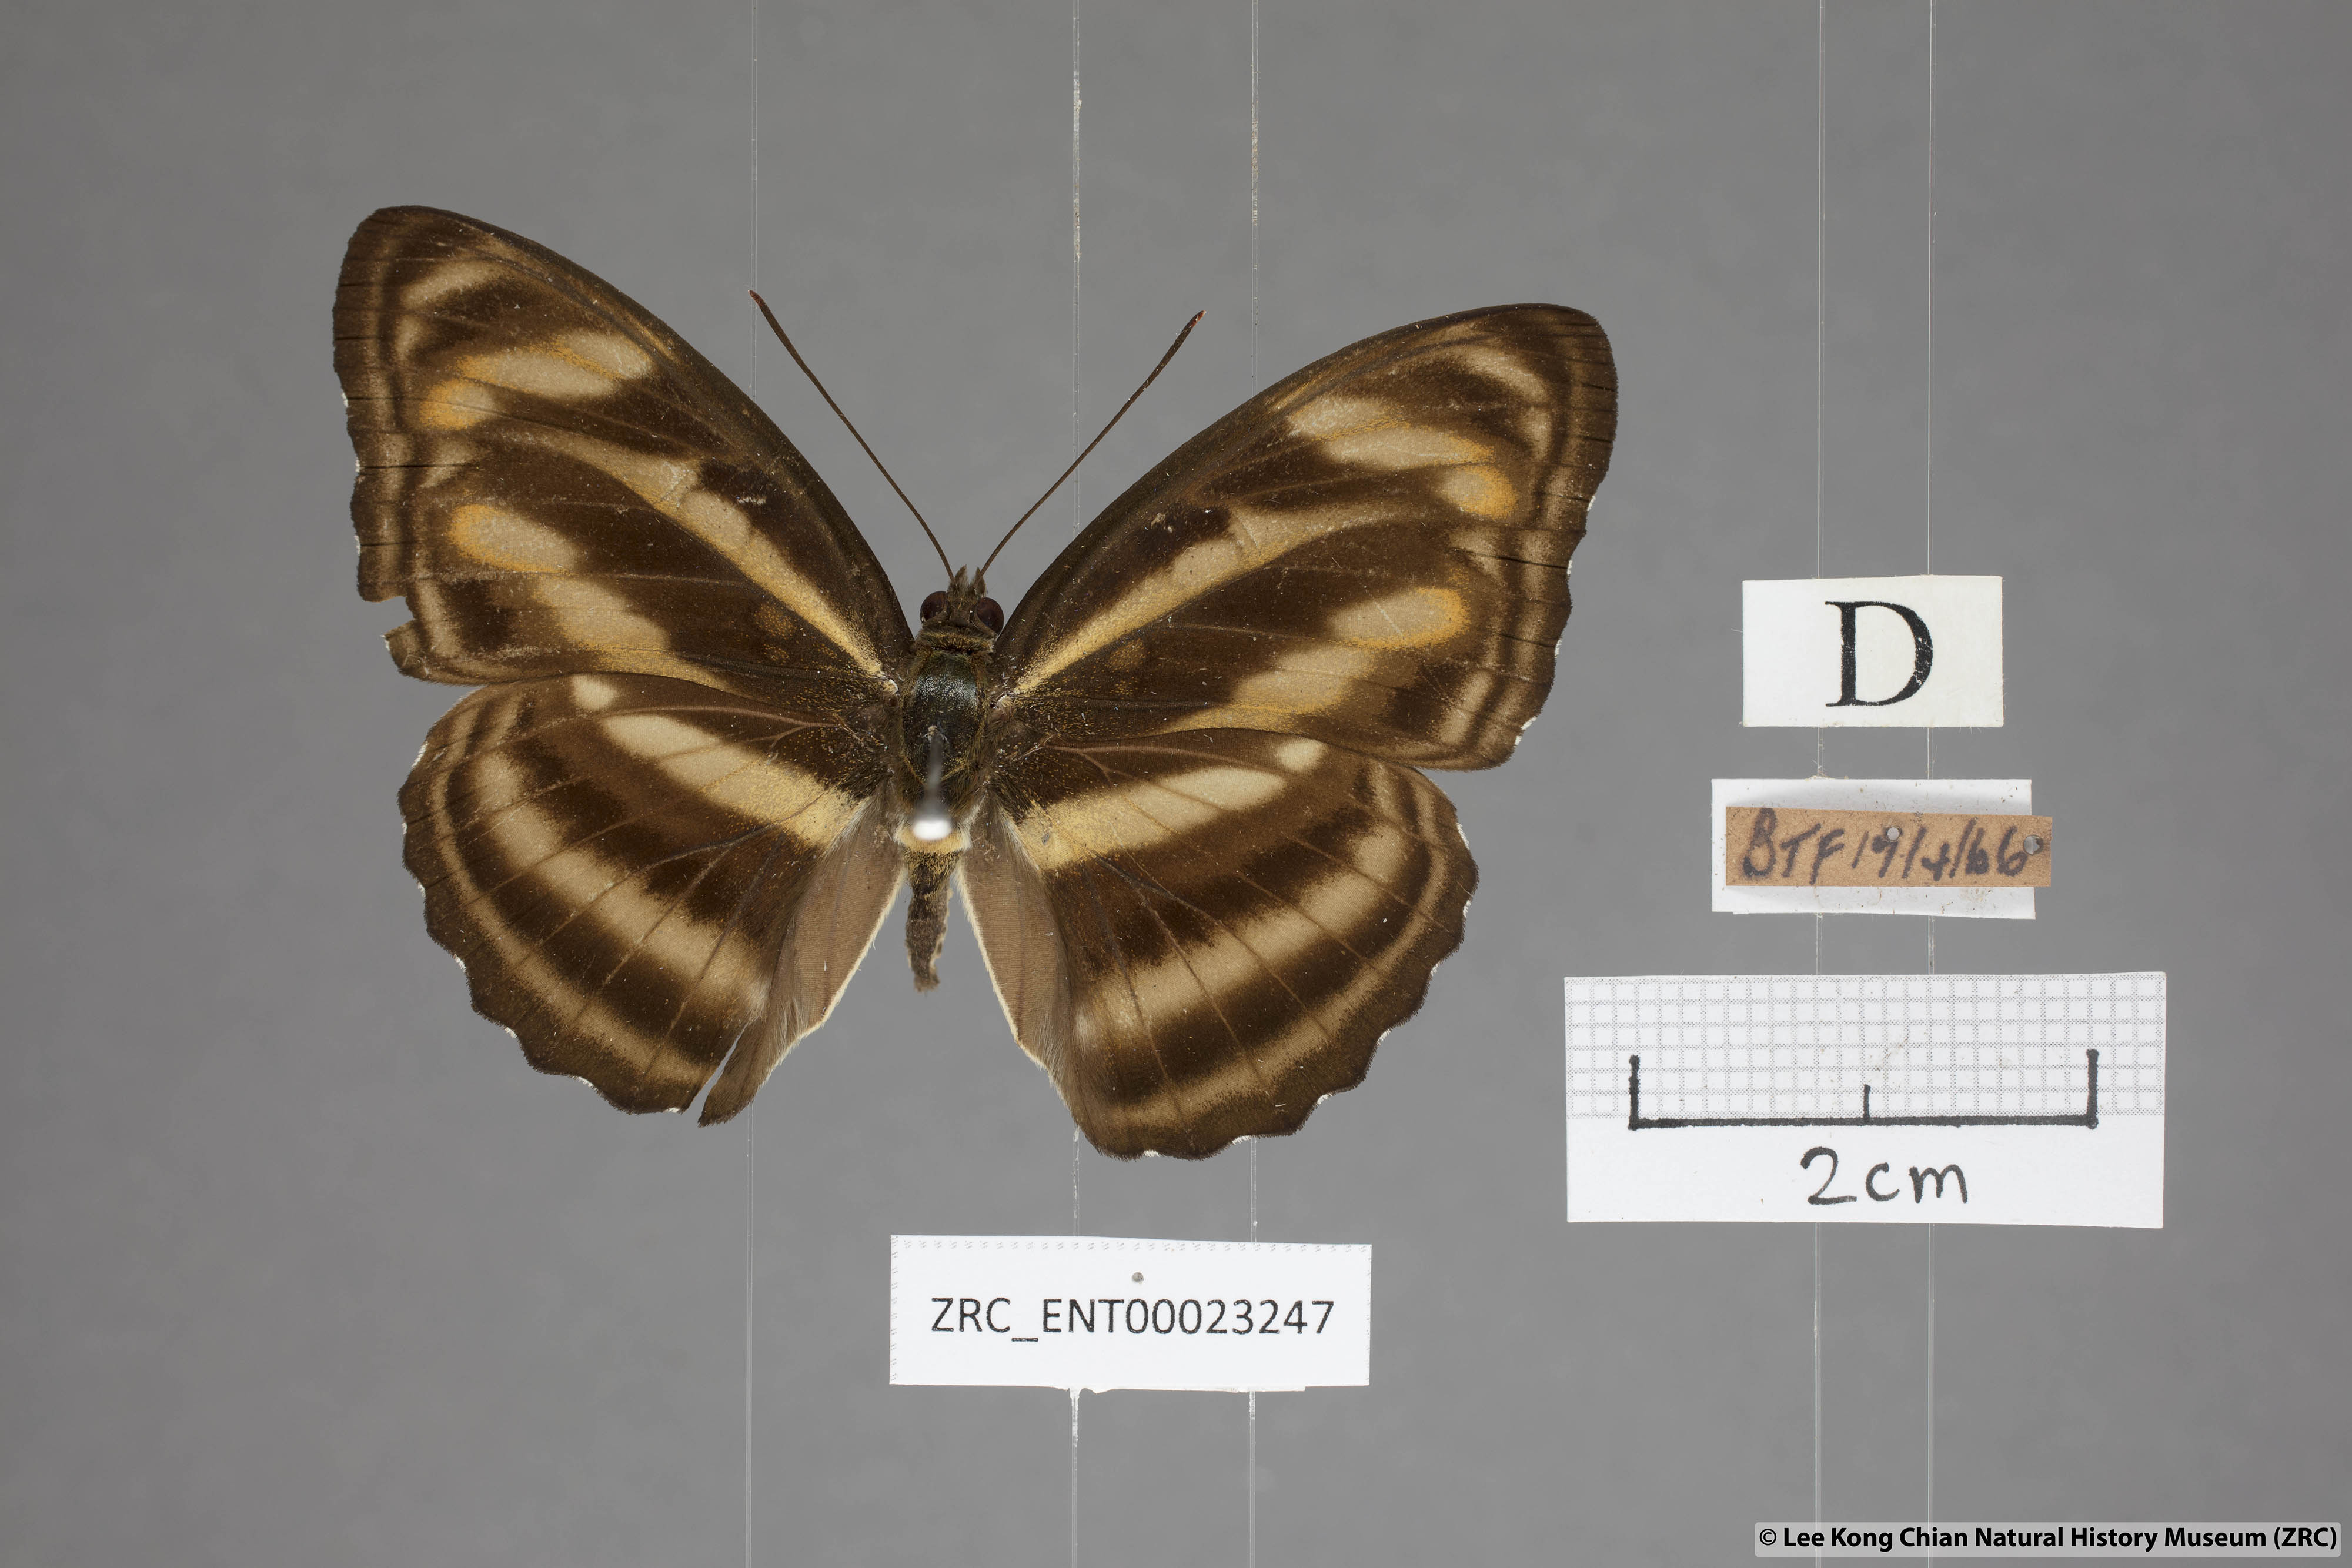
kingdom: Animalia
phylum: Arthropoda
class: Insecta
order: Lepidoptera
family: Nymphalidae
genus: Parathyma
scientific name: Parathyma nefte
